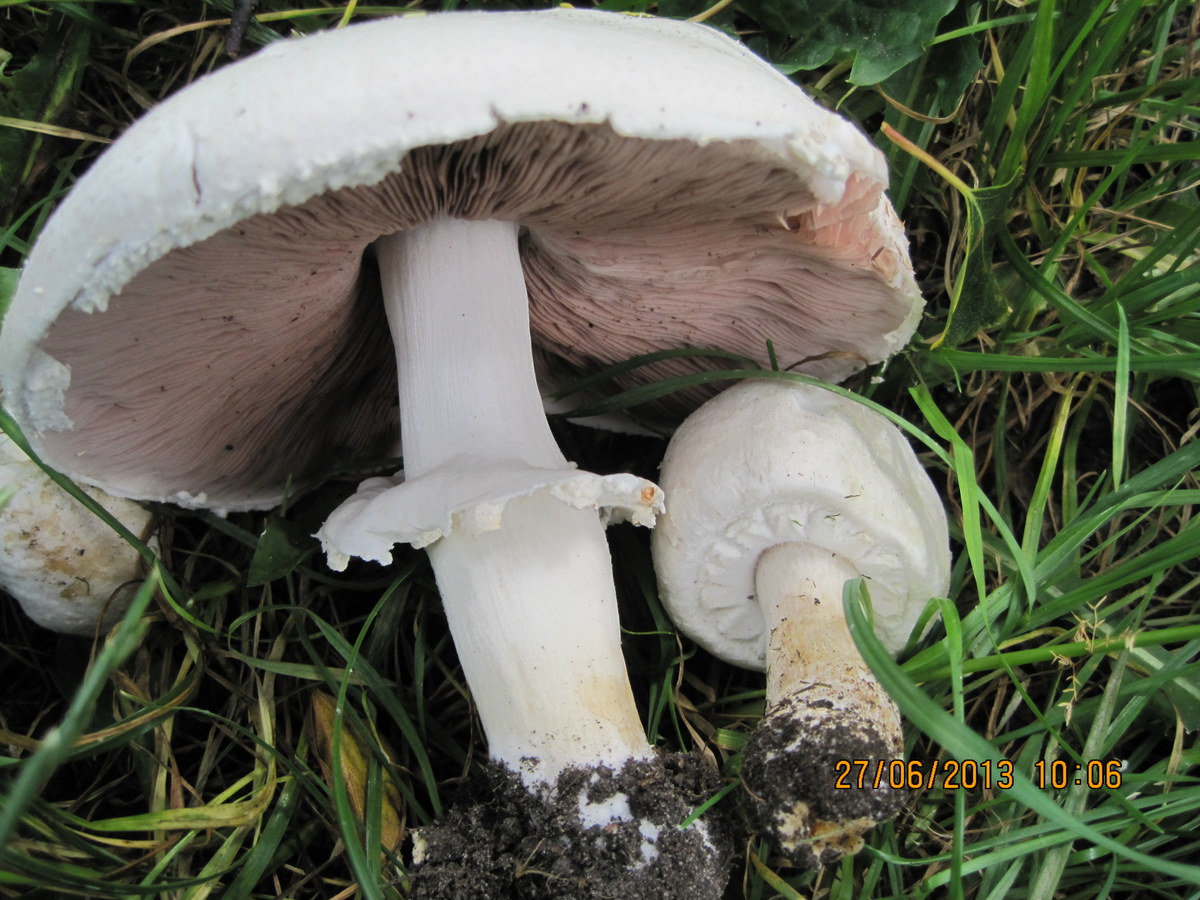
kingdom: Fungi
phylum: Basidiomycota
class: Agaricomycetes
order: Agaricales
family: Agaricaceae
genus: Agaricus
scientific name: Agaricus arvensis
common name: ager-champignon
